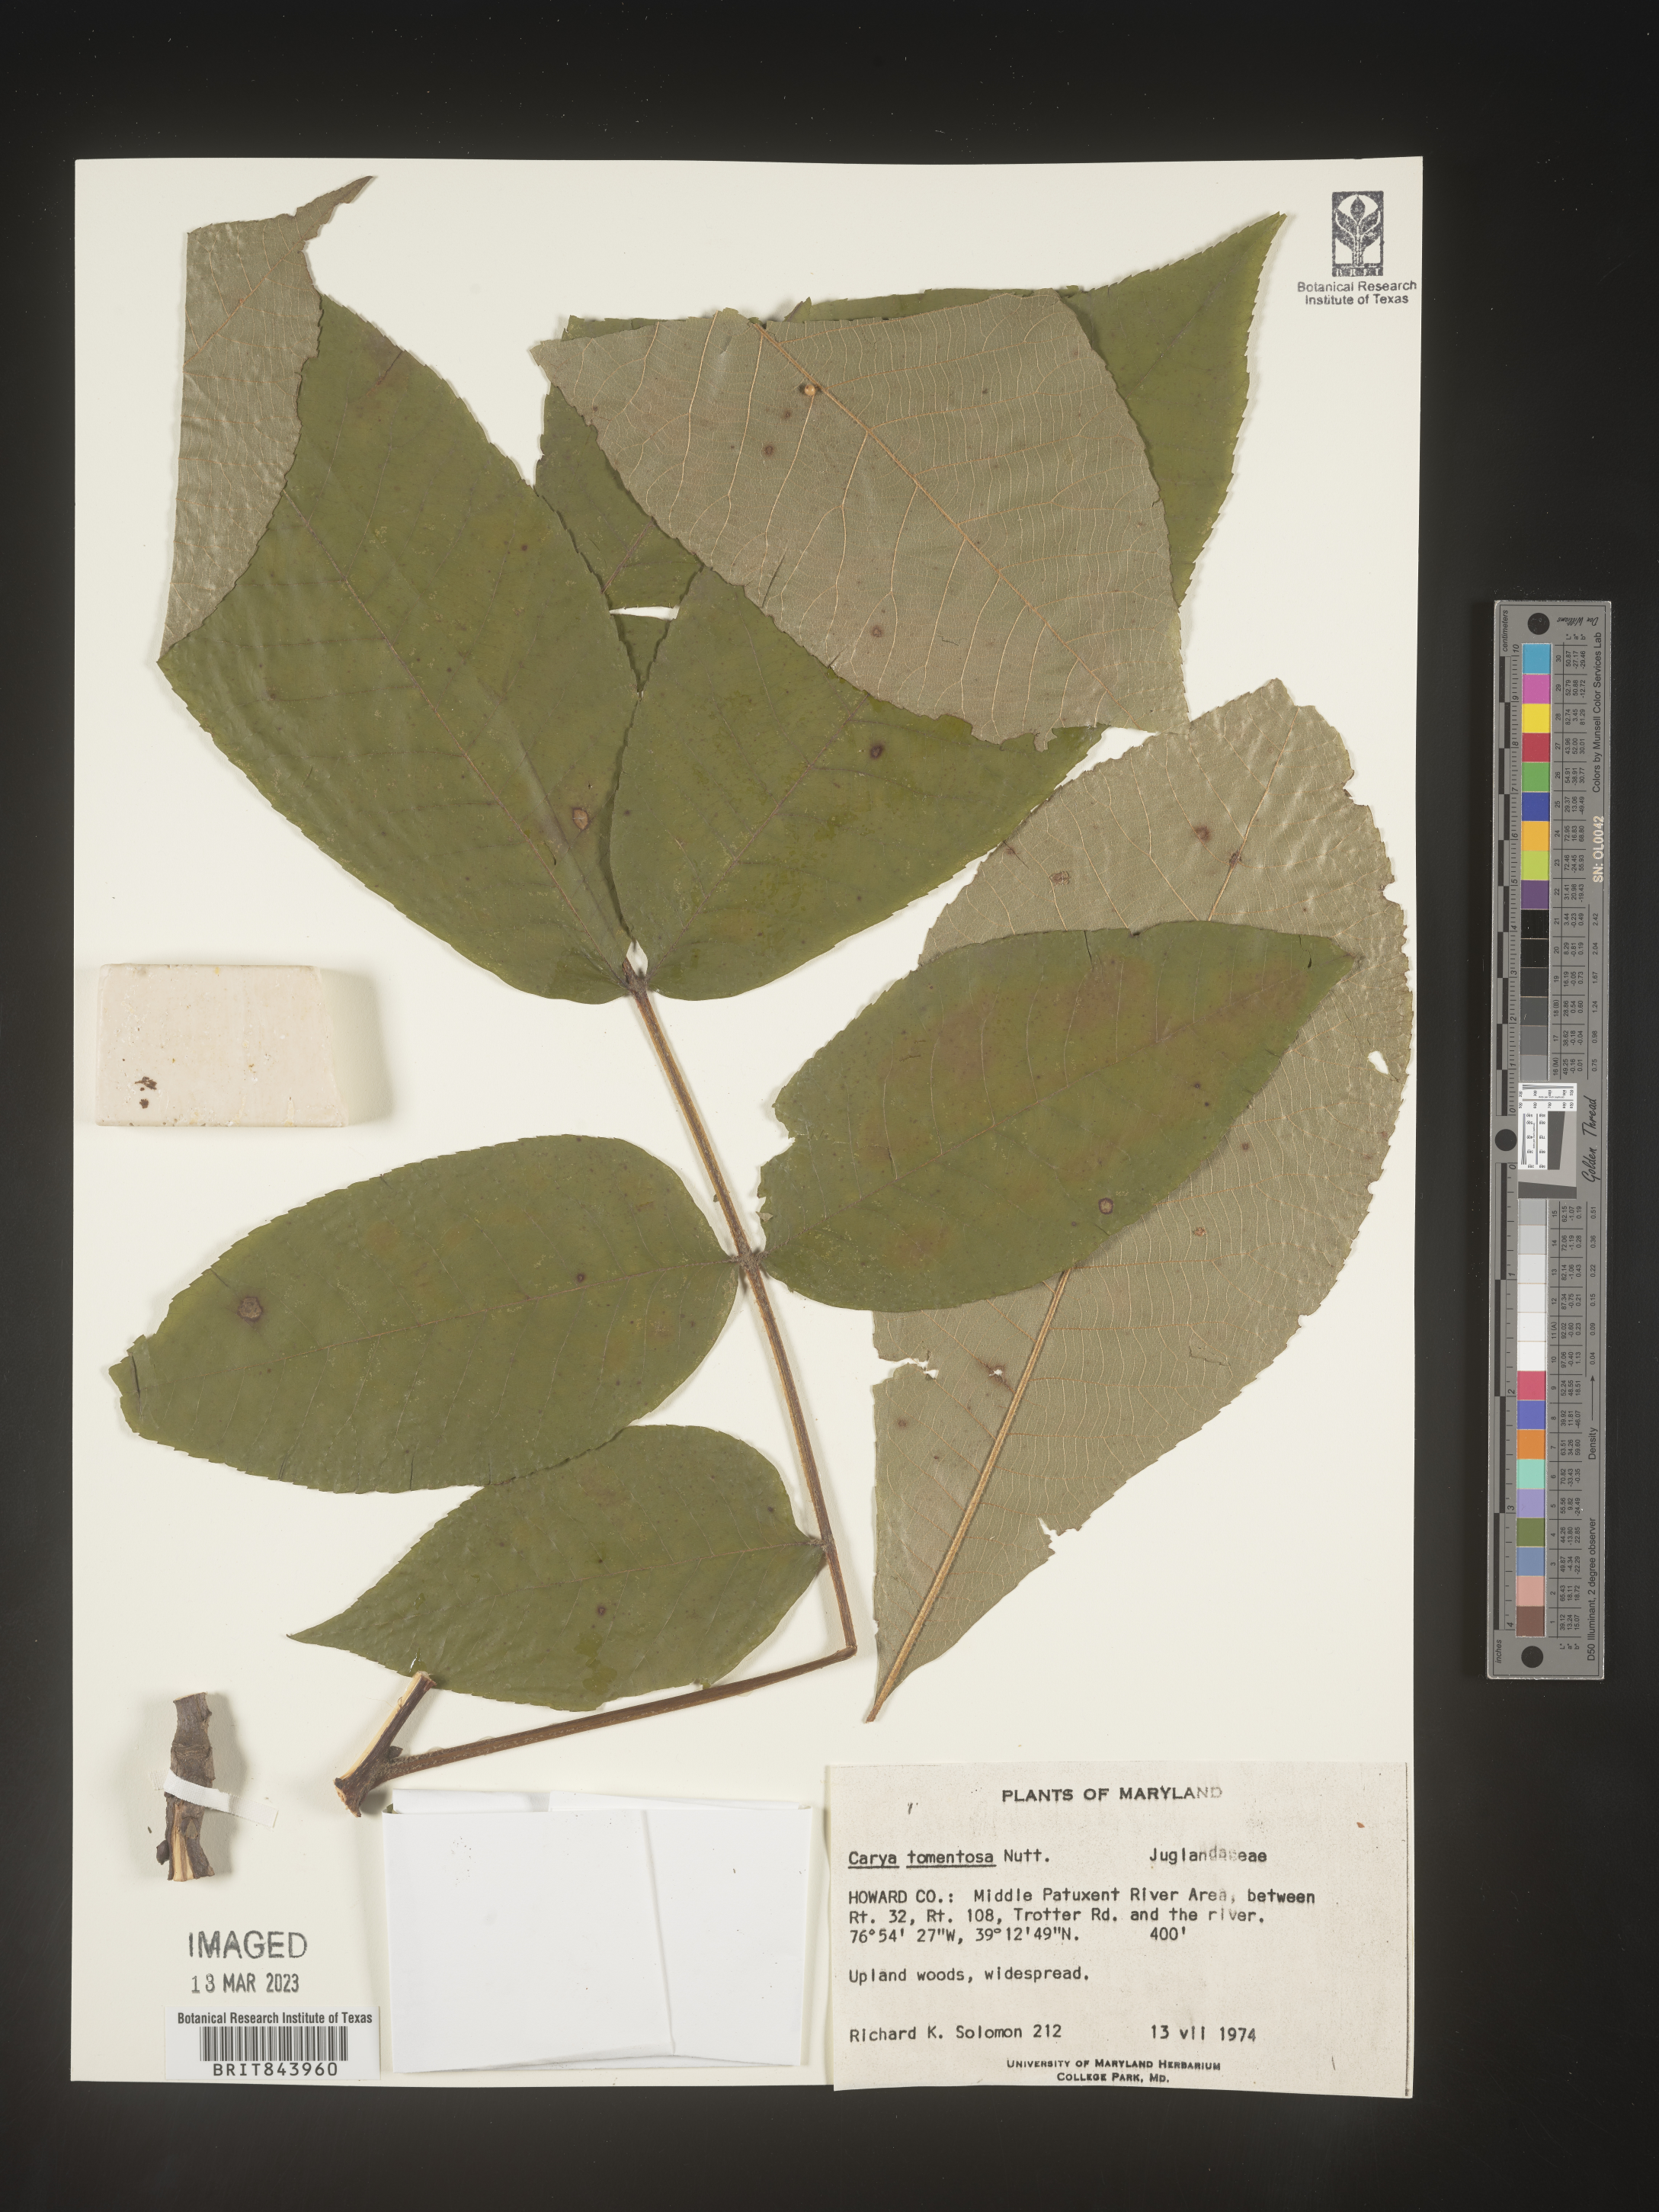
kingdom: Plantae
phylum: Tracheophyta
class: Magnoliopsida
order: Fagales
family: Juglandaceae
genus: Carya
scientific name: Carya alba
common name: Mockernut hickory
